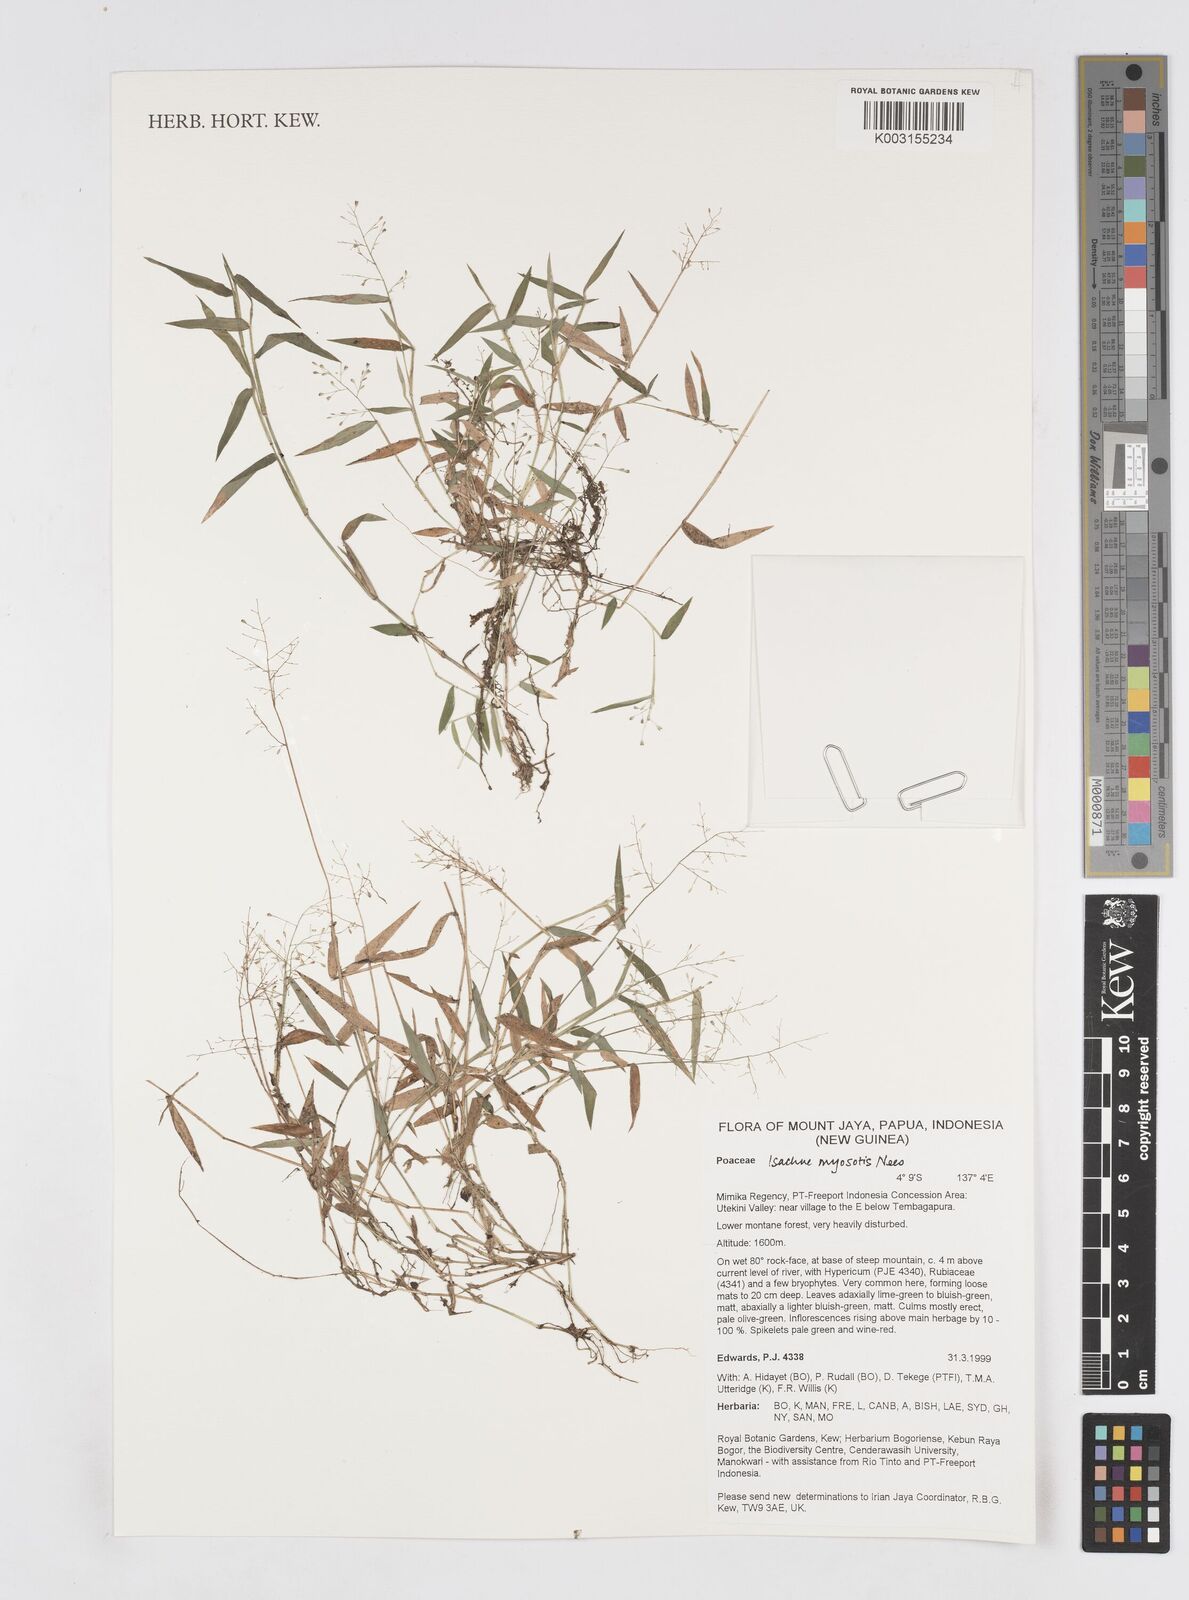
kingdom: Plantae
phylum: Tracheophyta
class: Liliopsida
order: Poales
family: Poaceae
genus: Isachne
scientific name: Isachne myosotis
